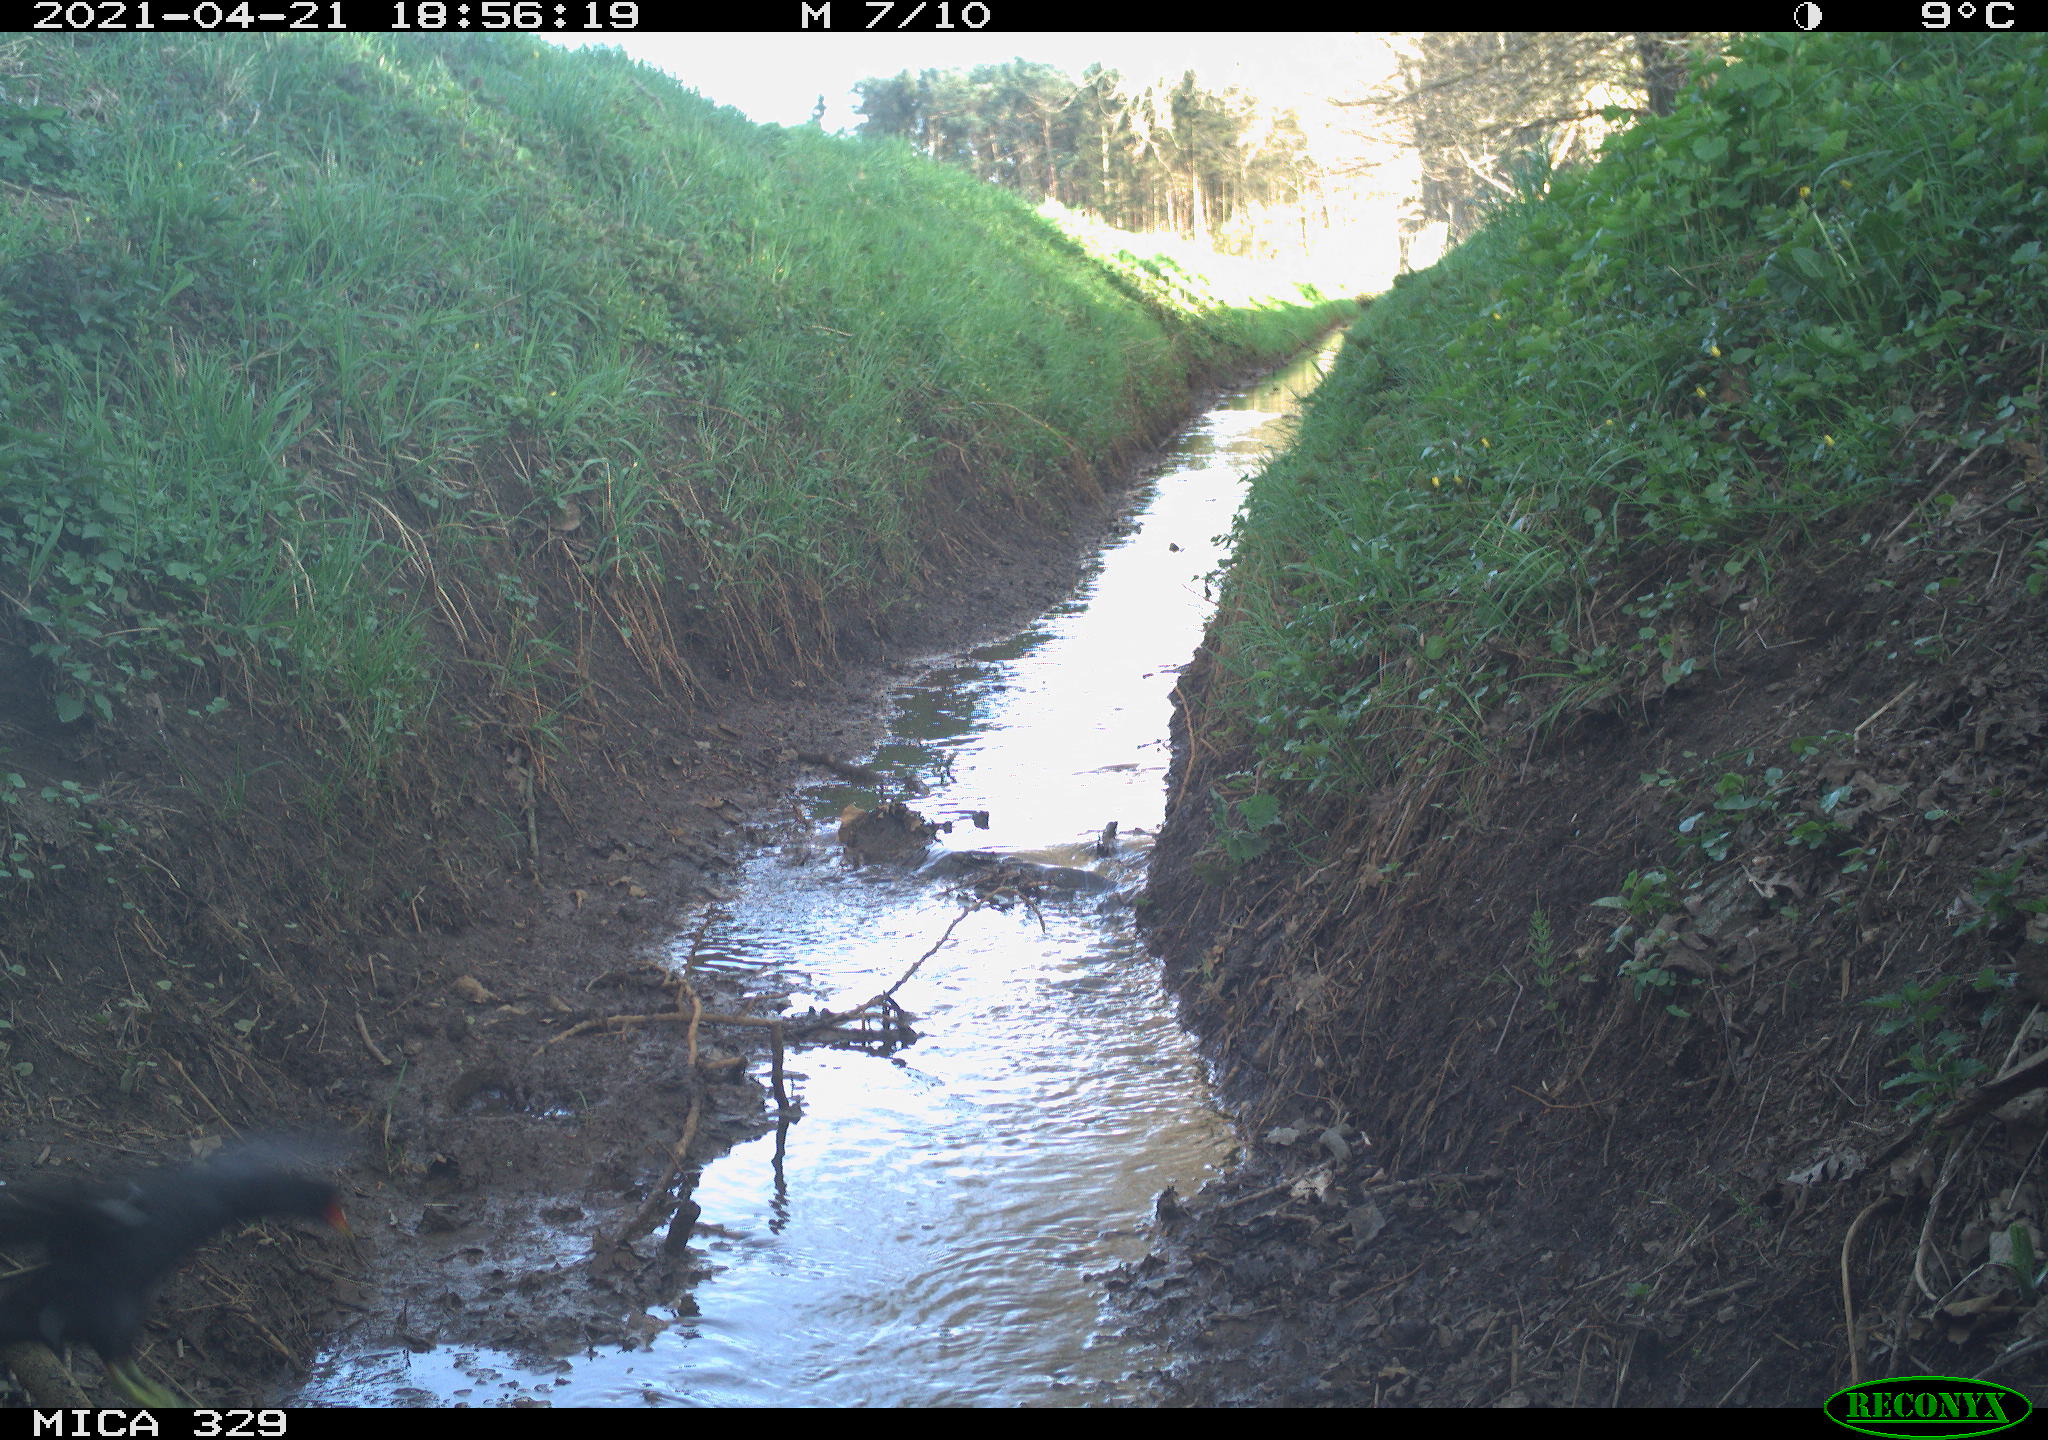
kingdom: Animalia
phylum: Chordata
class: Aves
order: Columbiformes
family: Columbidae
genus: Columba
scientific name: Columba palumbus
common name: Common wood pigeon
